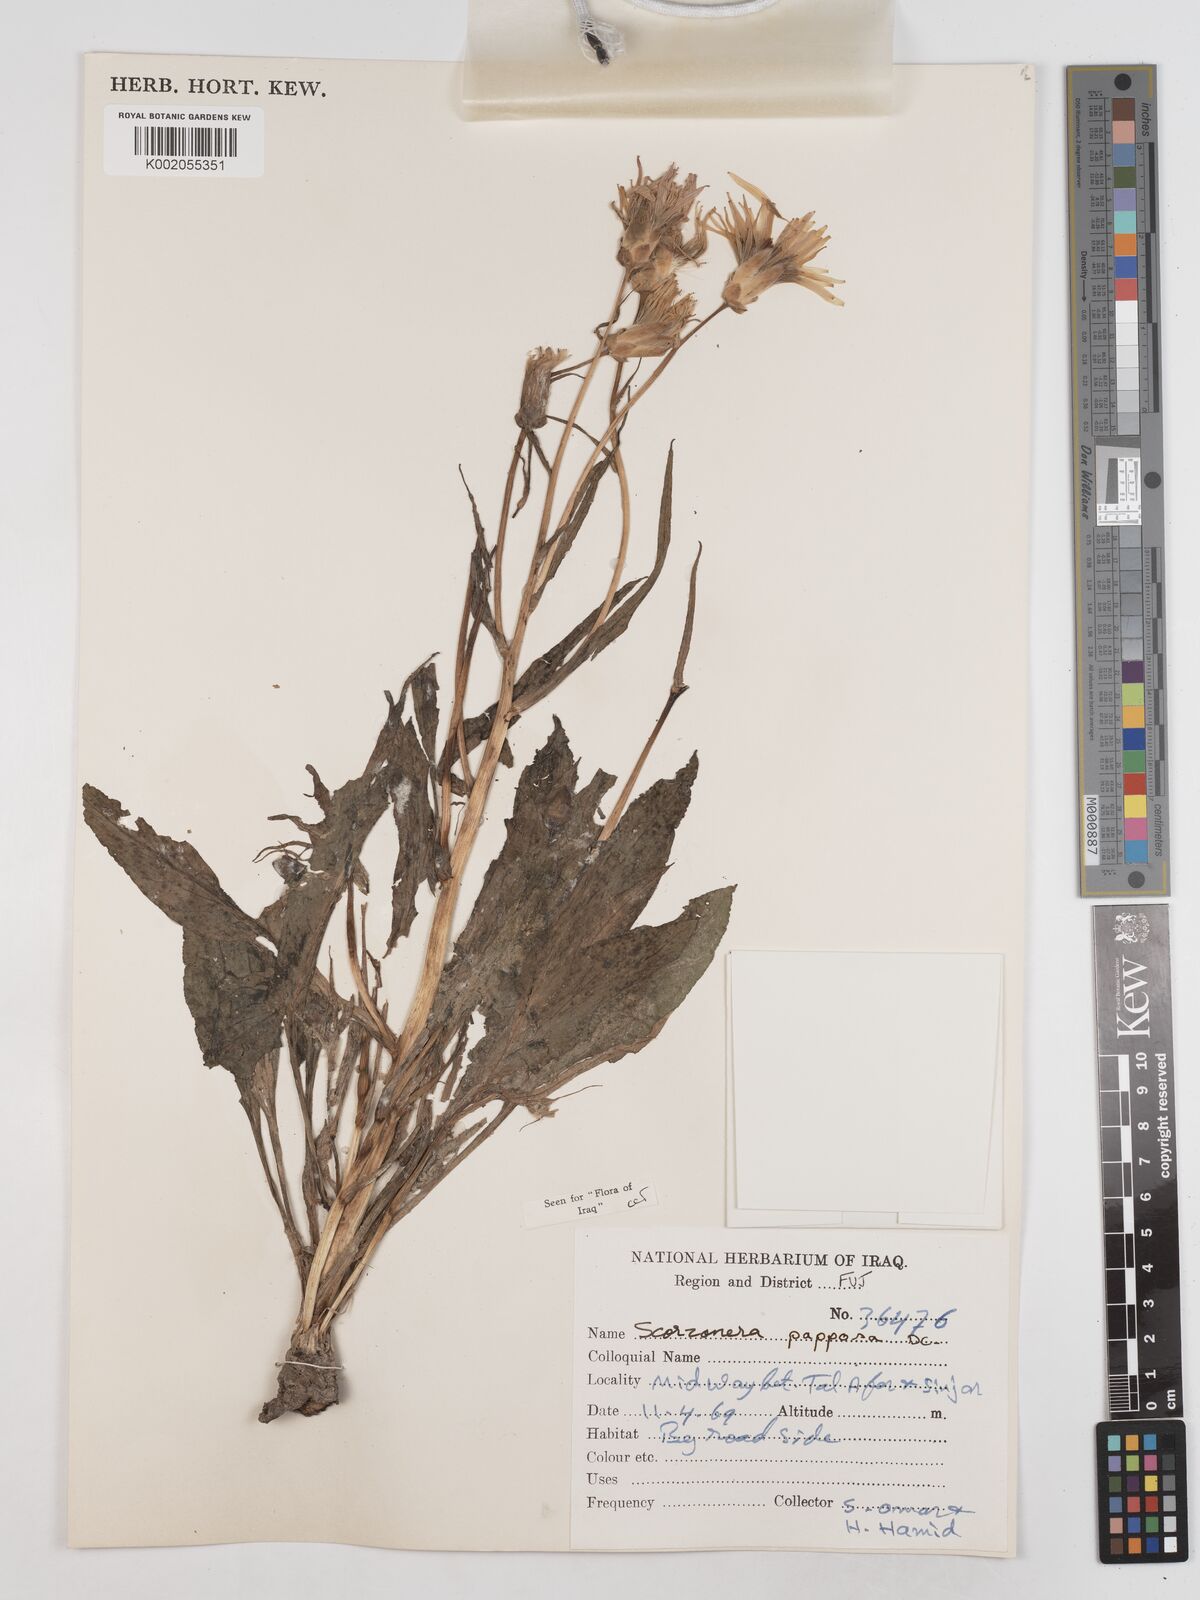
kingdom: Plantae
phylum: Tracheophyta
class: Magnoliopsida
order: Asterales
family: Asteraceae
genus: Pseudopodospermum
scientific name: Pseudopodospermum papposum
